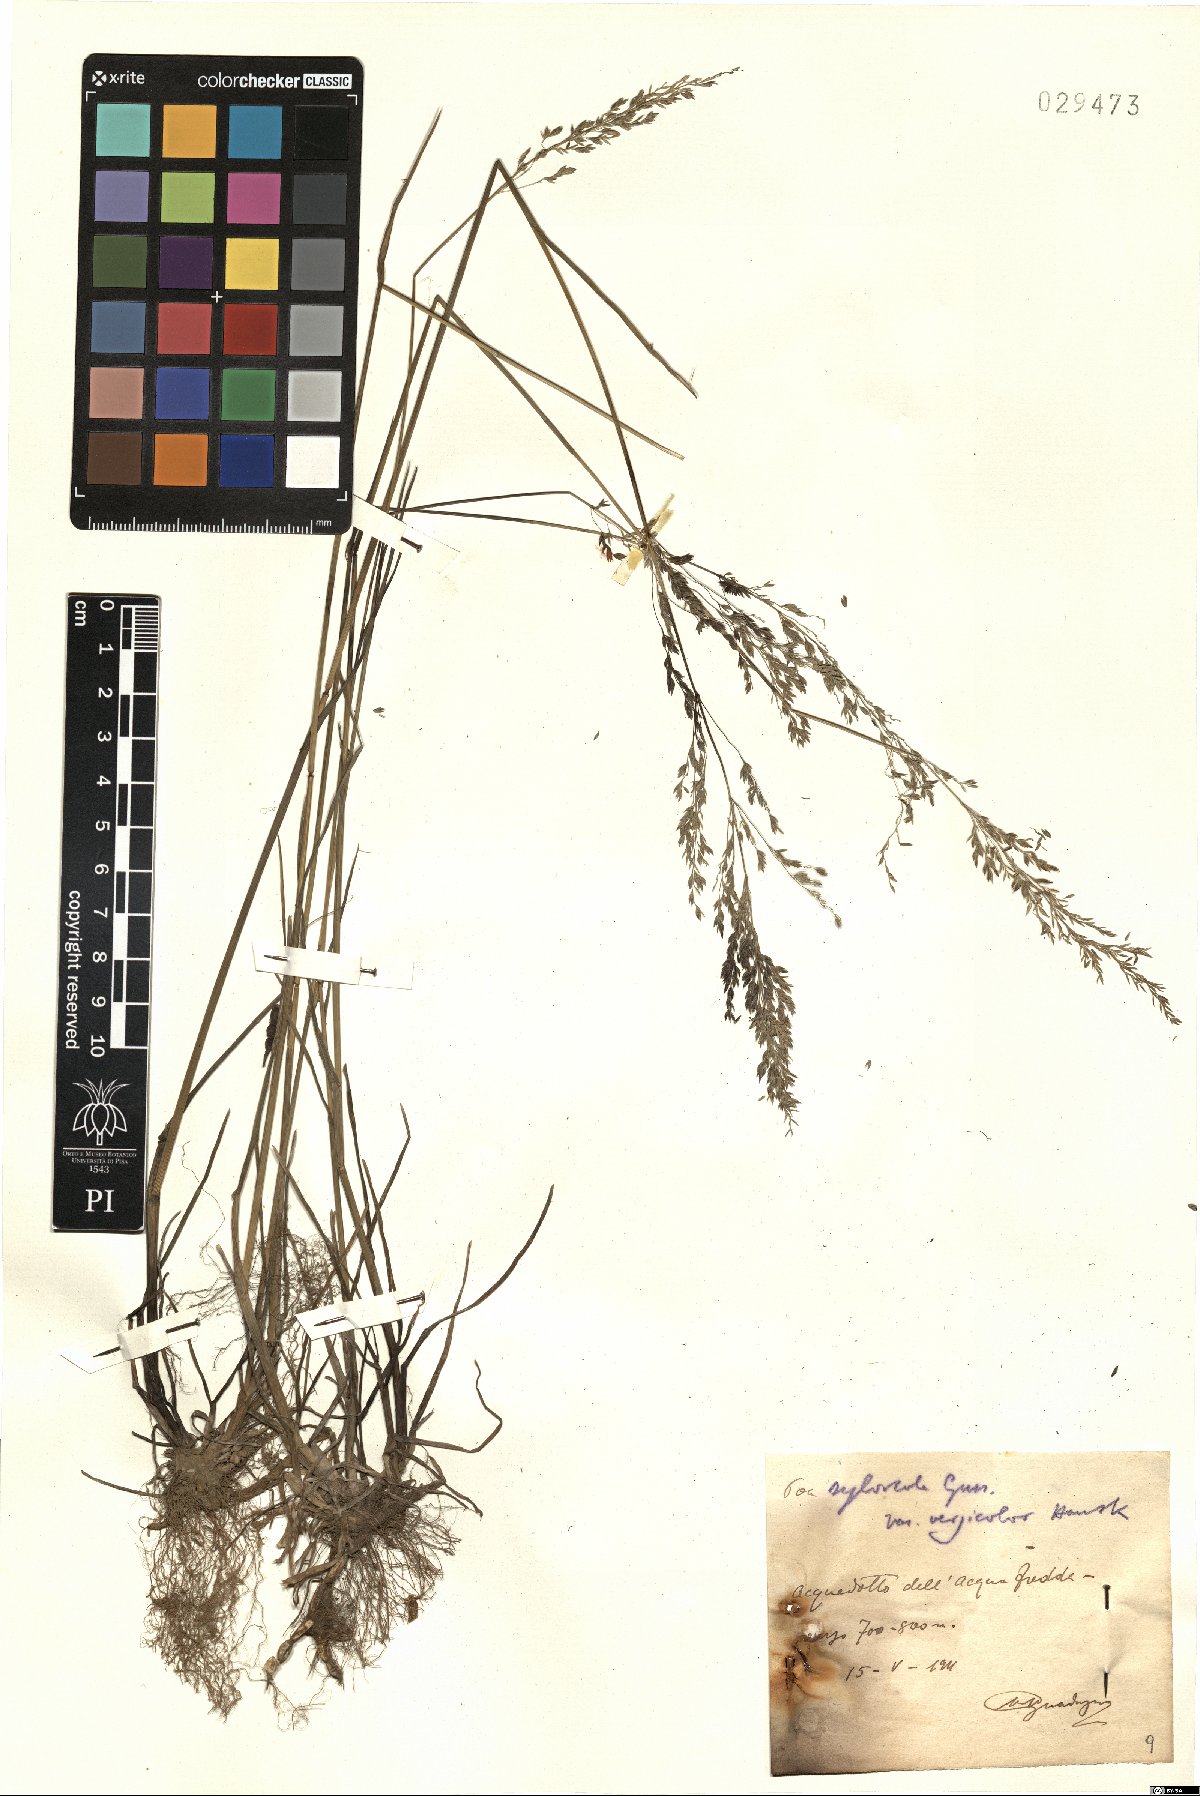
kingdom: Plantae
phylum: Tracheophyta
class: Liliopsida
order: Poales
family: Poaceae
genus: Poa
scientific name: Poa trivialis
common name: Rough bluegrass
